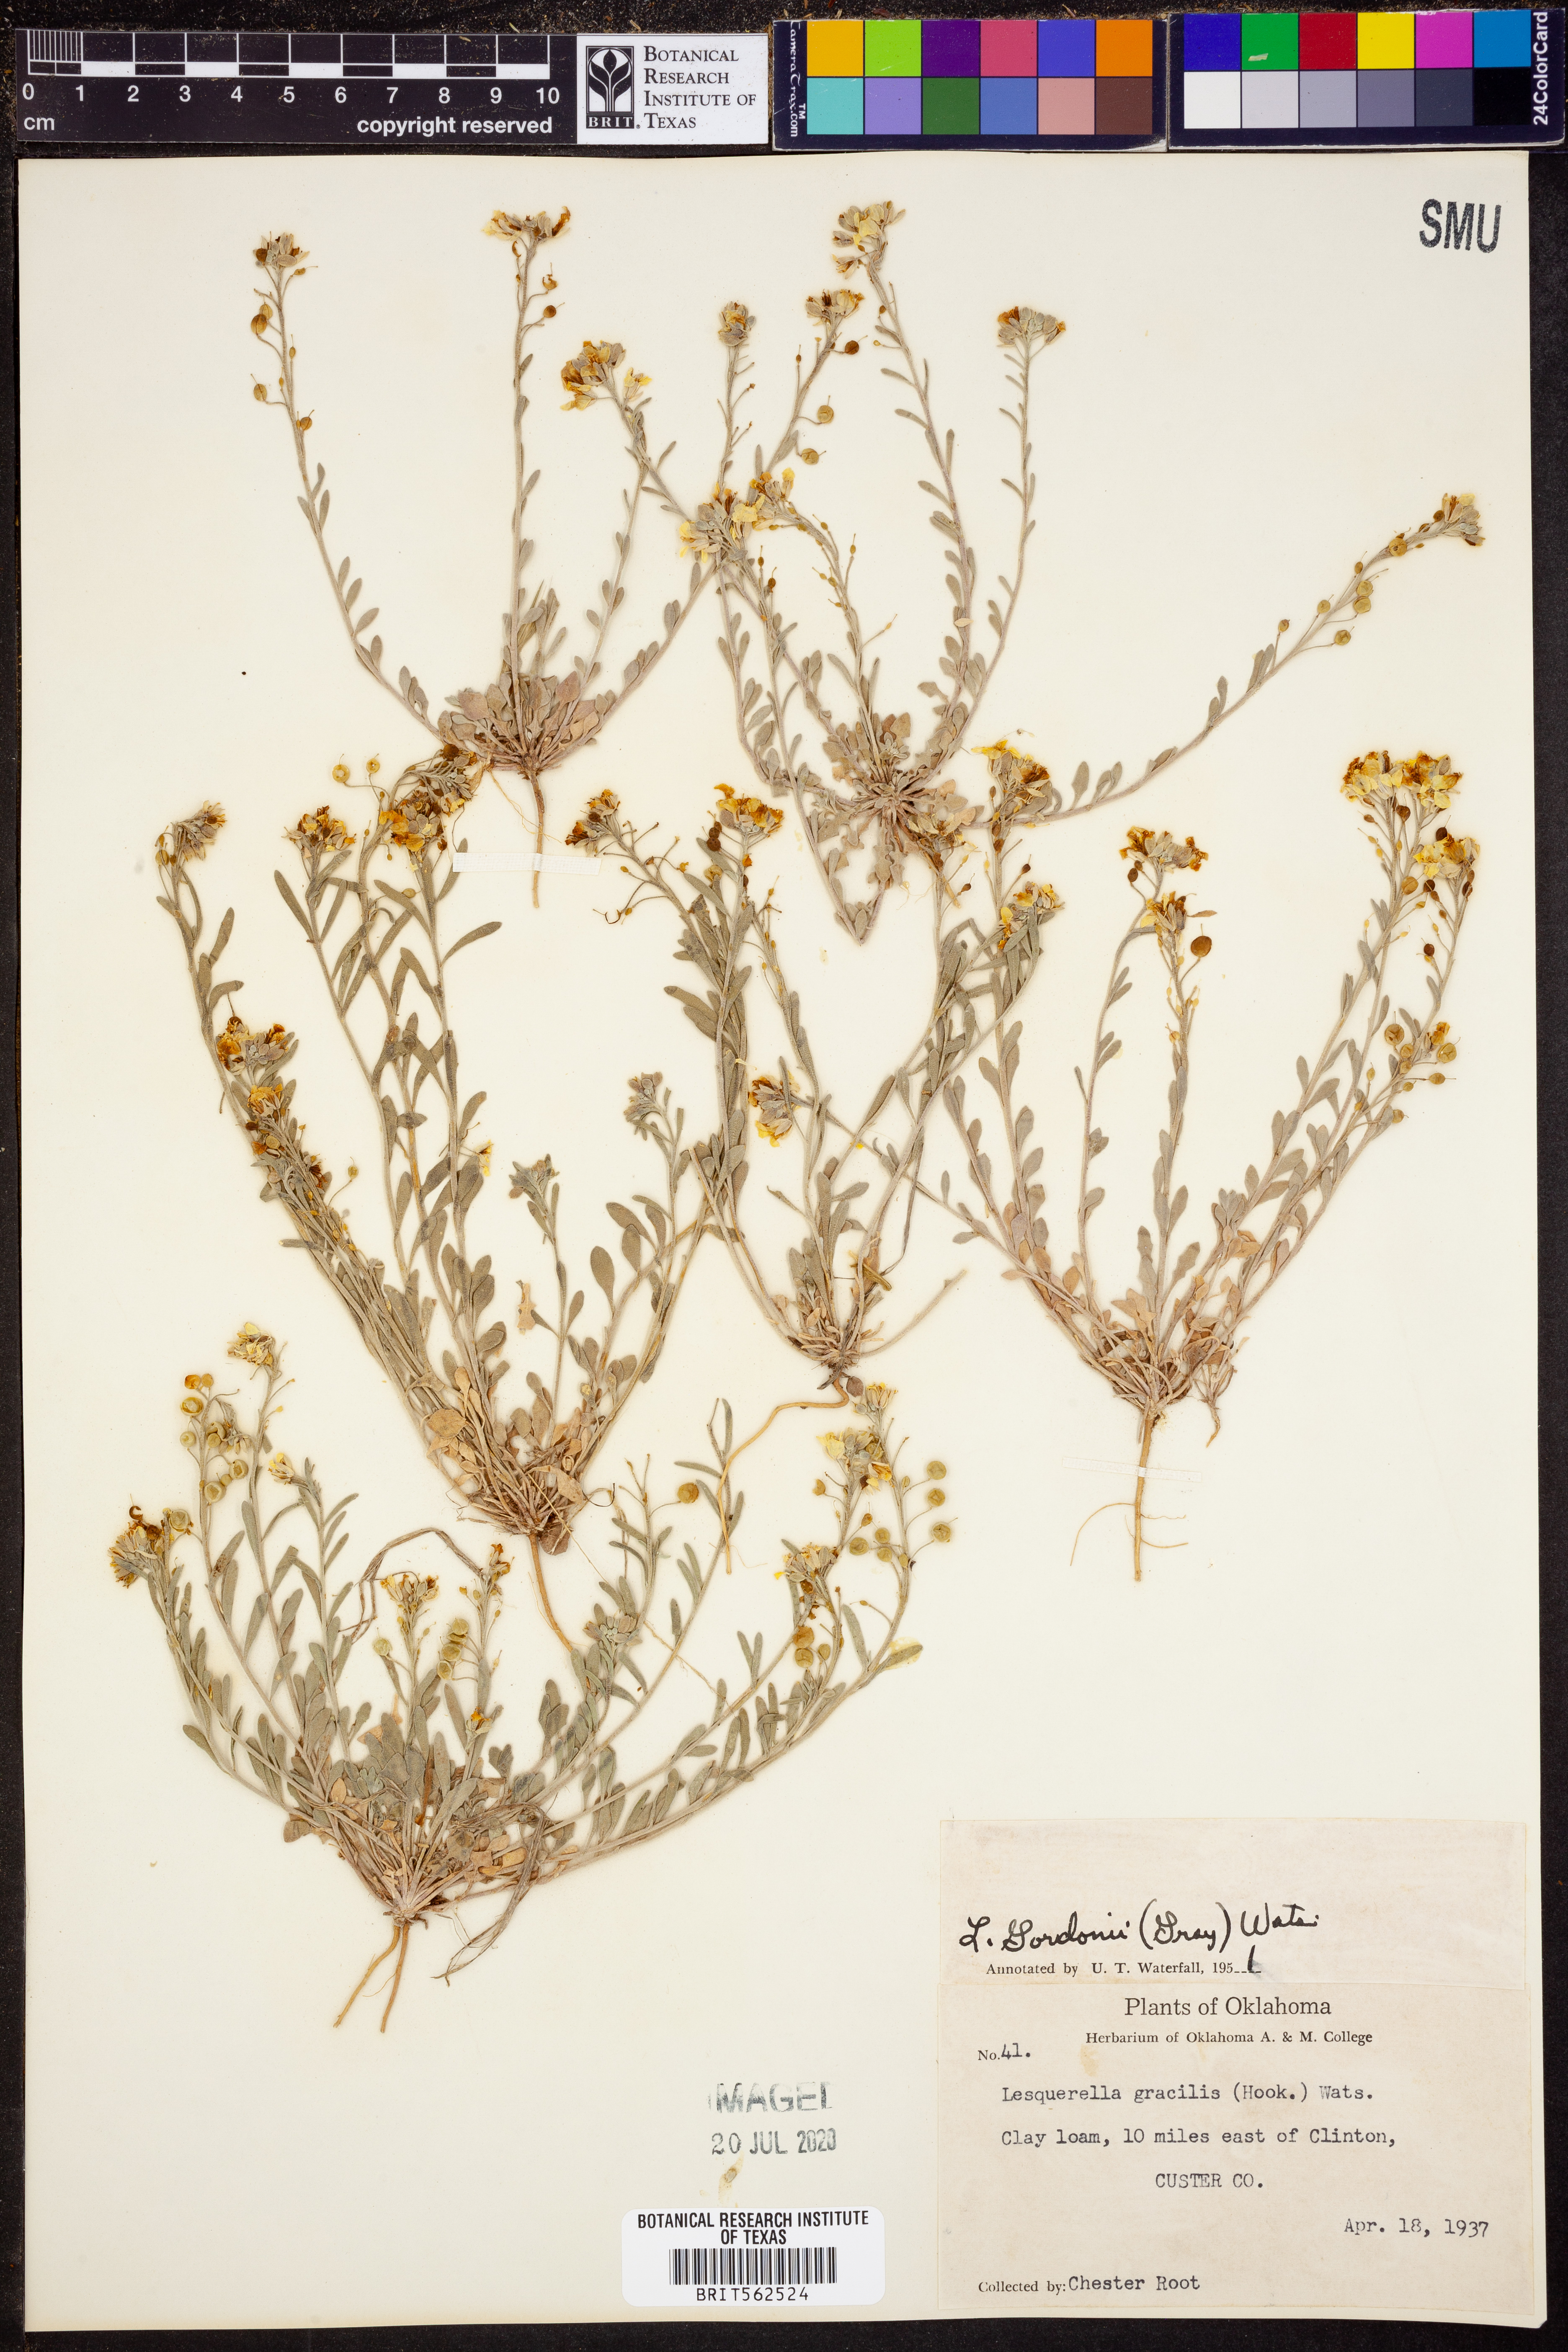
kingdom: Plantae
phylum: Tracheophyta
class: Magnoliopsida
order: Brassicales
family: Brassicaceae
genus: Physaria
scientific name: Physaria gordonii
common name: Gordon's bladderpod
